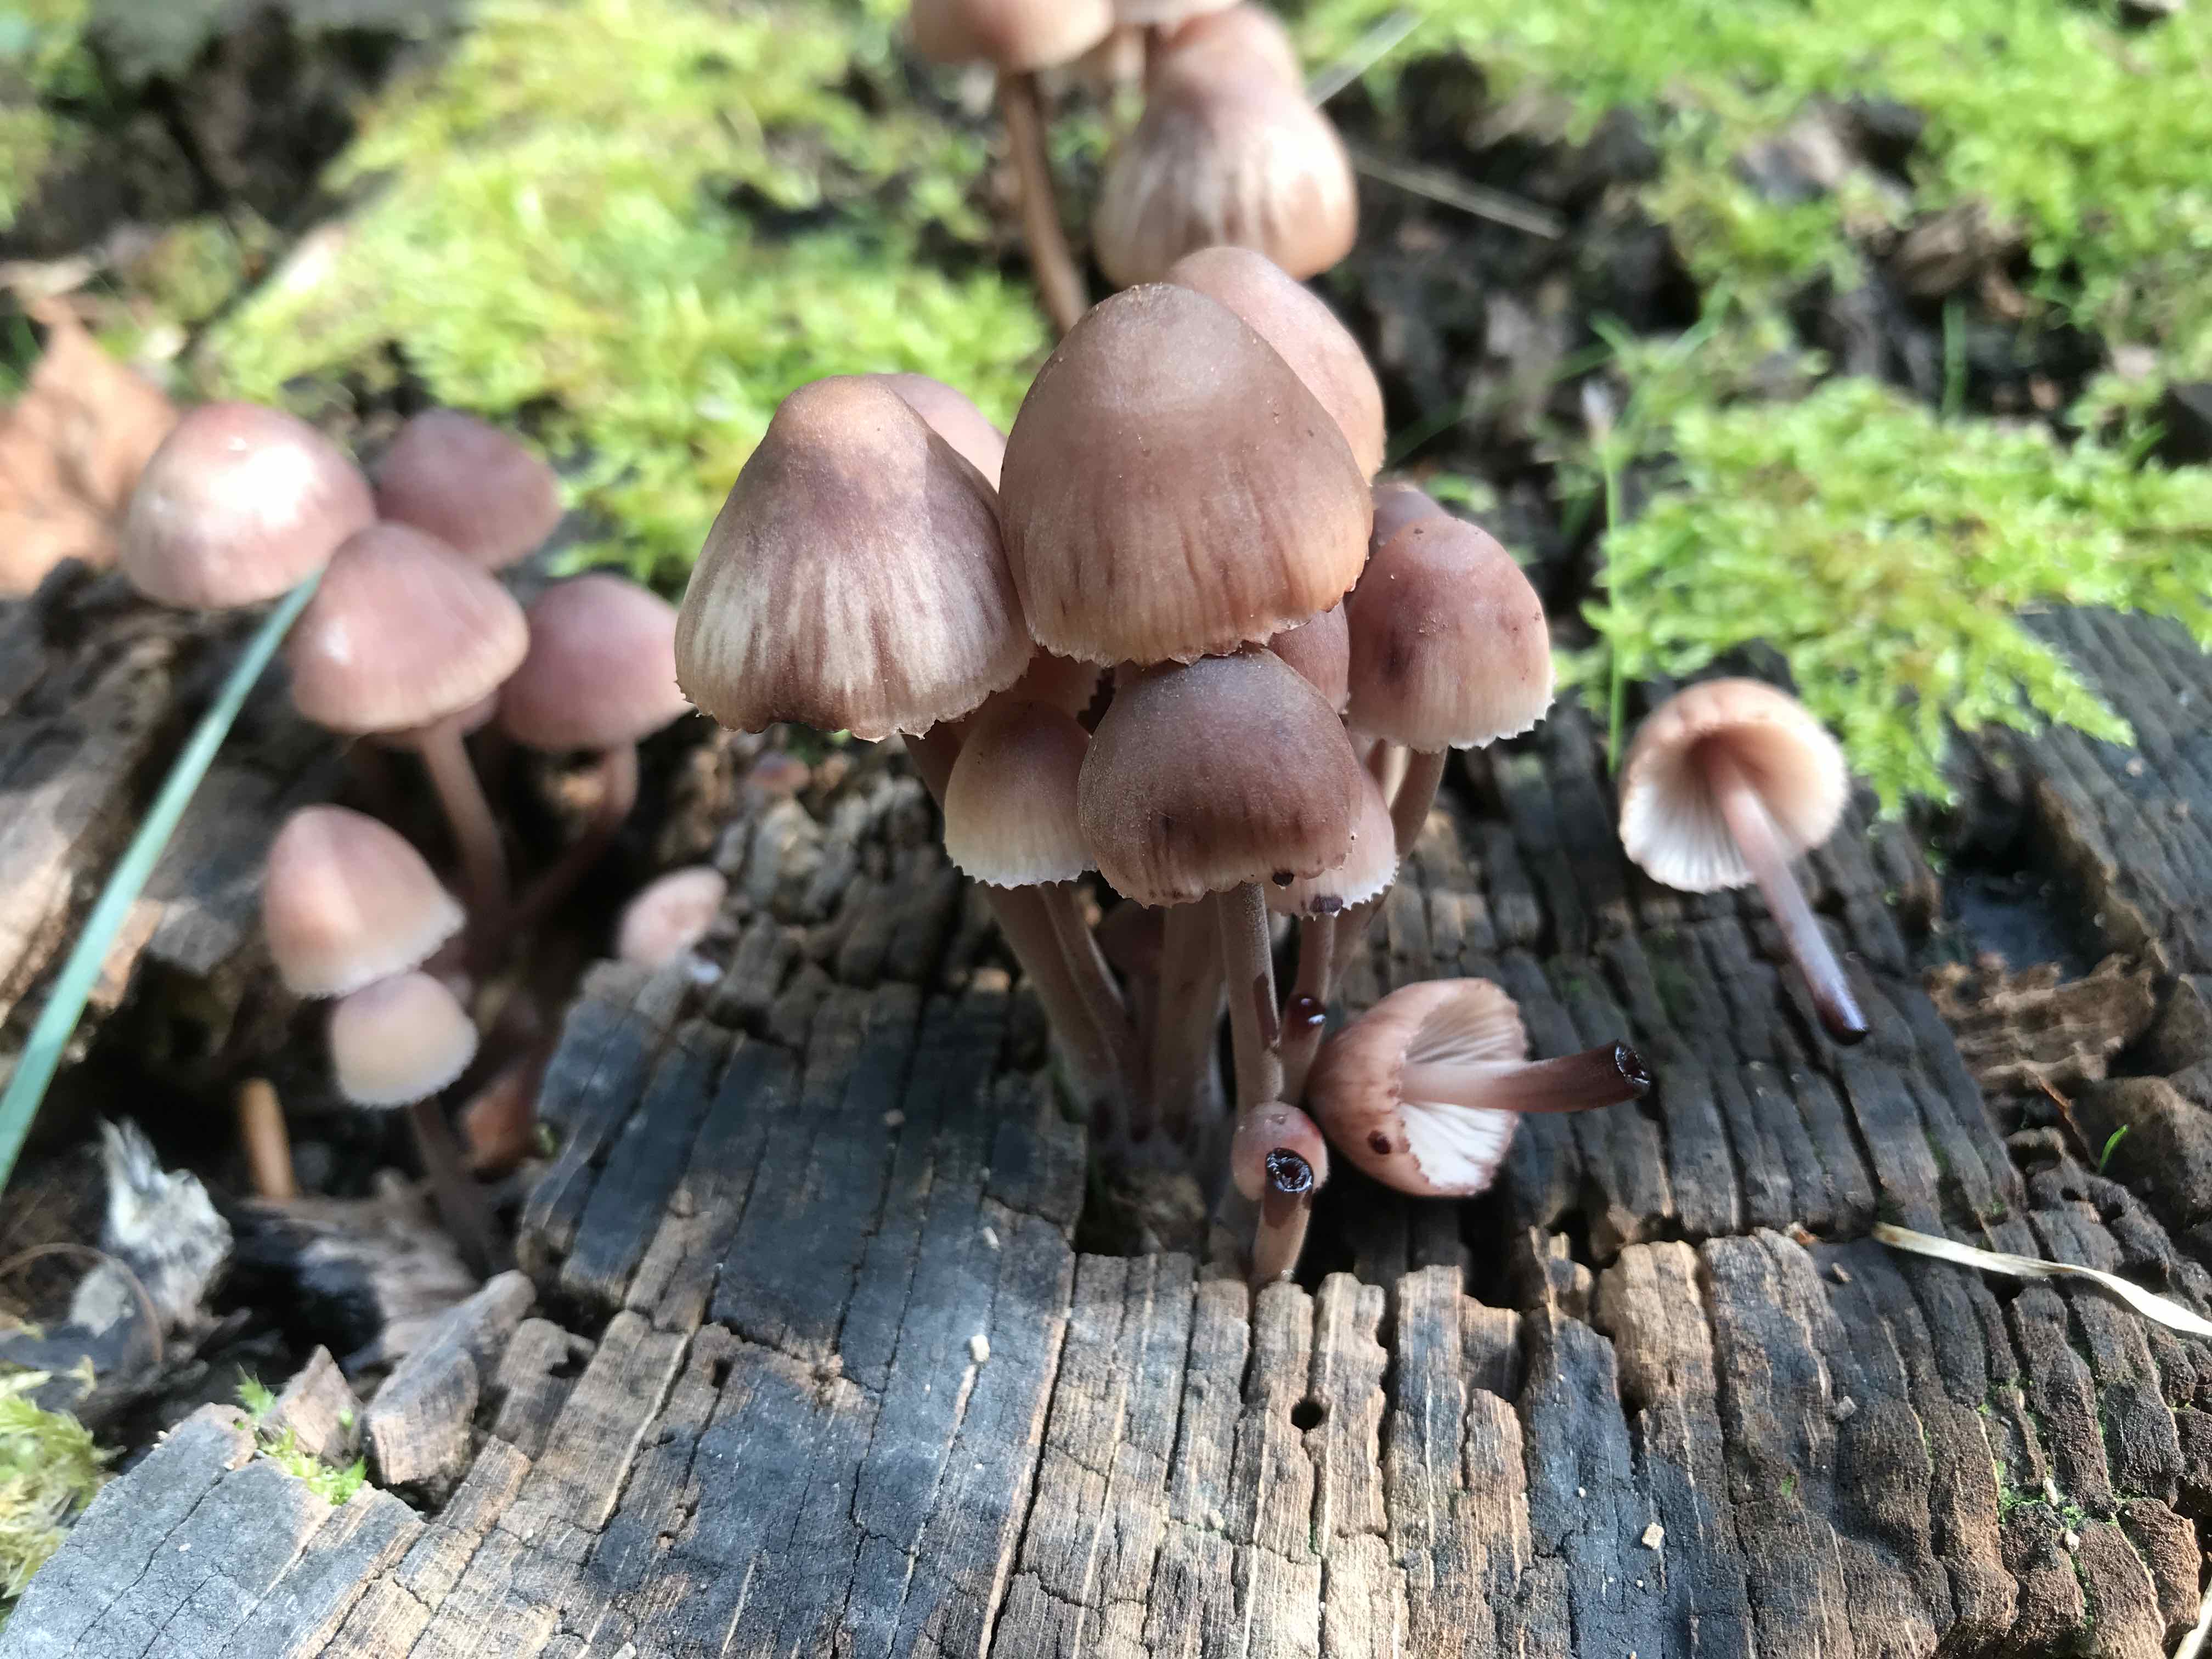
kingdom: Fungi
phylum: Basidiomycota
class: Agaricomycetes
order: Agaricales
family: Mycenaceae
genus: Mycena
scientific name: Mycena haematopus
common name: blødende huesvamp
